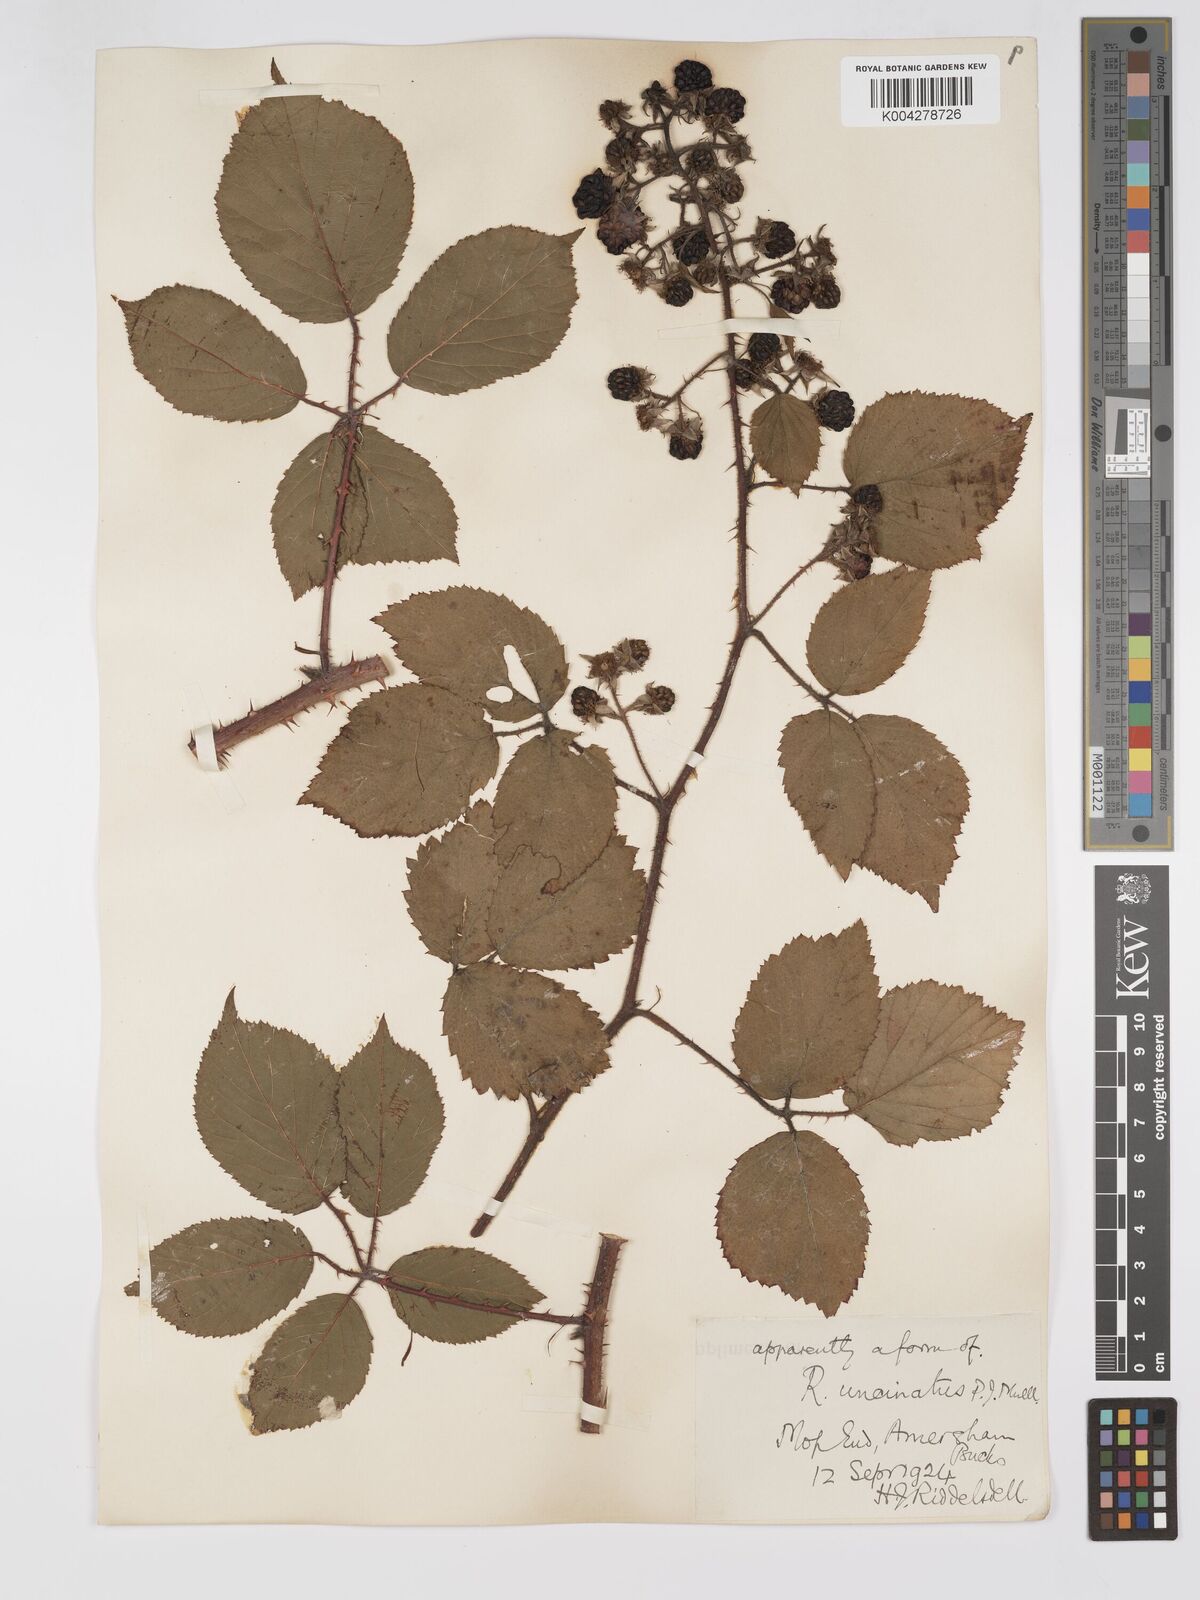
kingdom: Plantae
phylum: Tracheophyta
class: Magnoliopsida
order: Rosales
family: Rosaceae
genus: Rubus
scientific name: Rubus uncinatus
